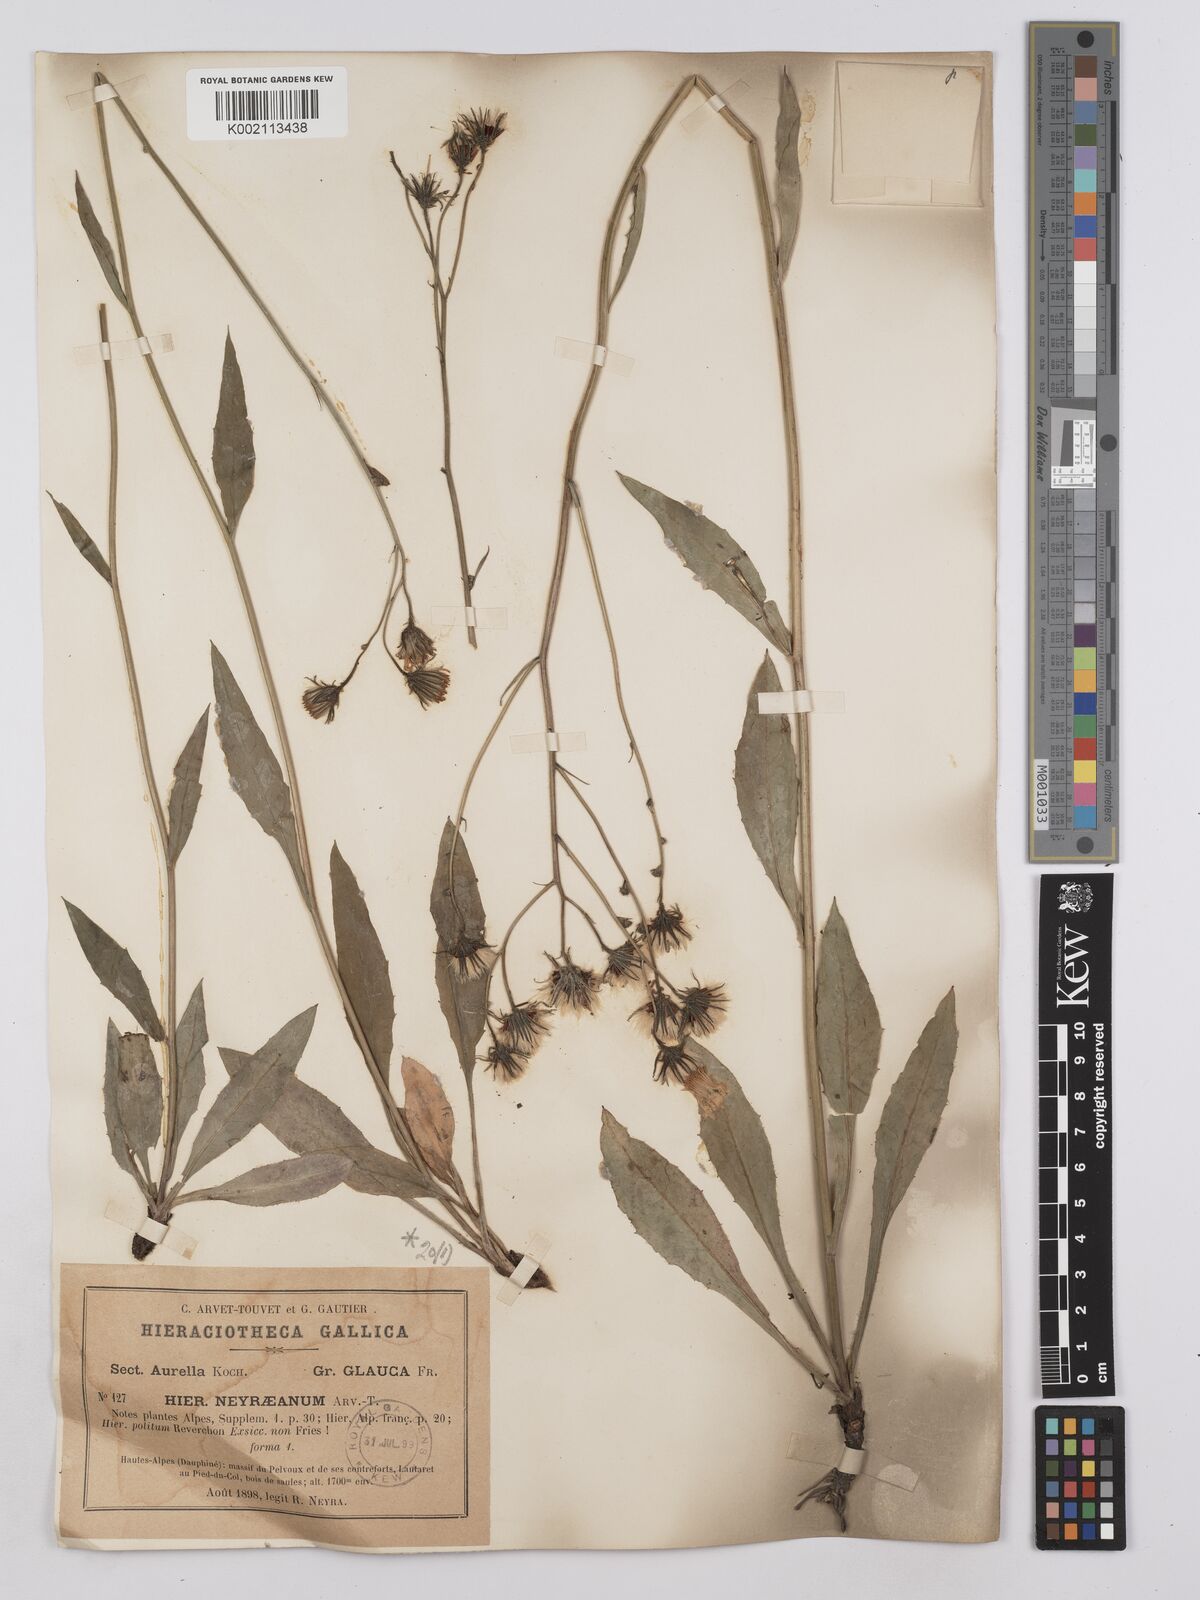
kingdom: Plantae
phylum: Tracheophyta
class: Magnoliopsida
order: Asterales
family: Asteraceae
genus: Hieracium
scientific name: Hieracium neyranum
